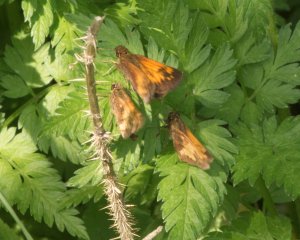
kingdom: Animalia
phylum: Arthropoda
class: Insecta
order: Lepidoptera
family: Hesperiidae
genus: Lon
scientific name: Lon hobomok
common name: Hobomok Skipper
